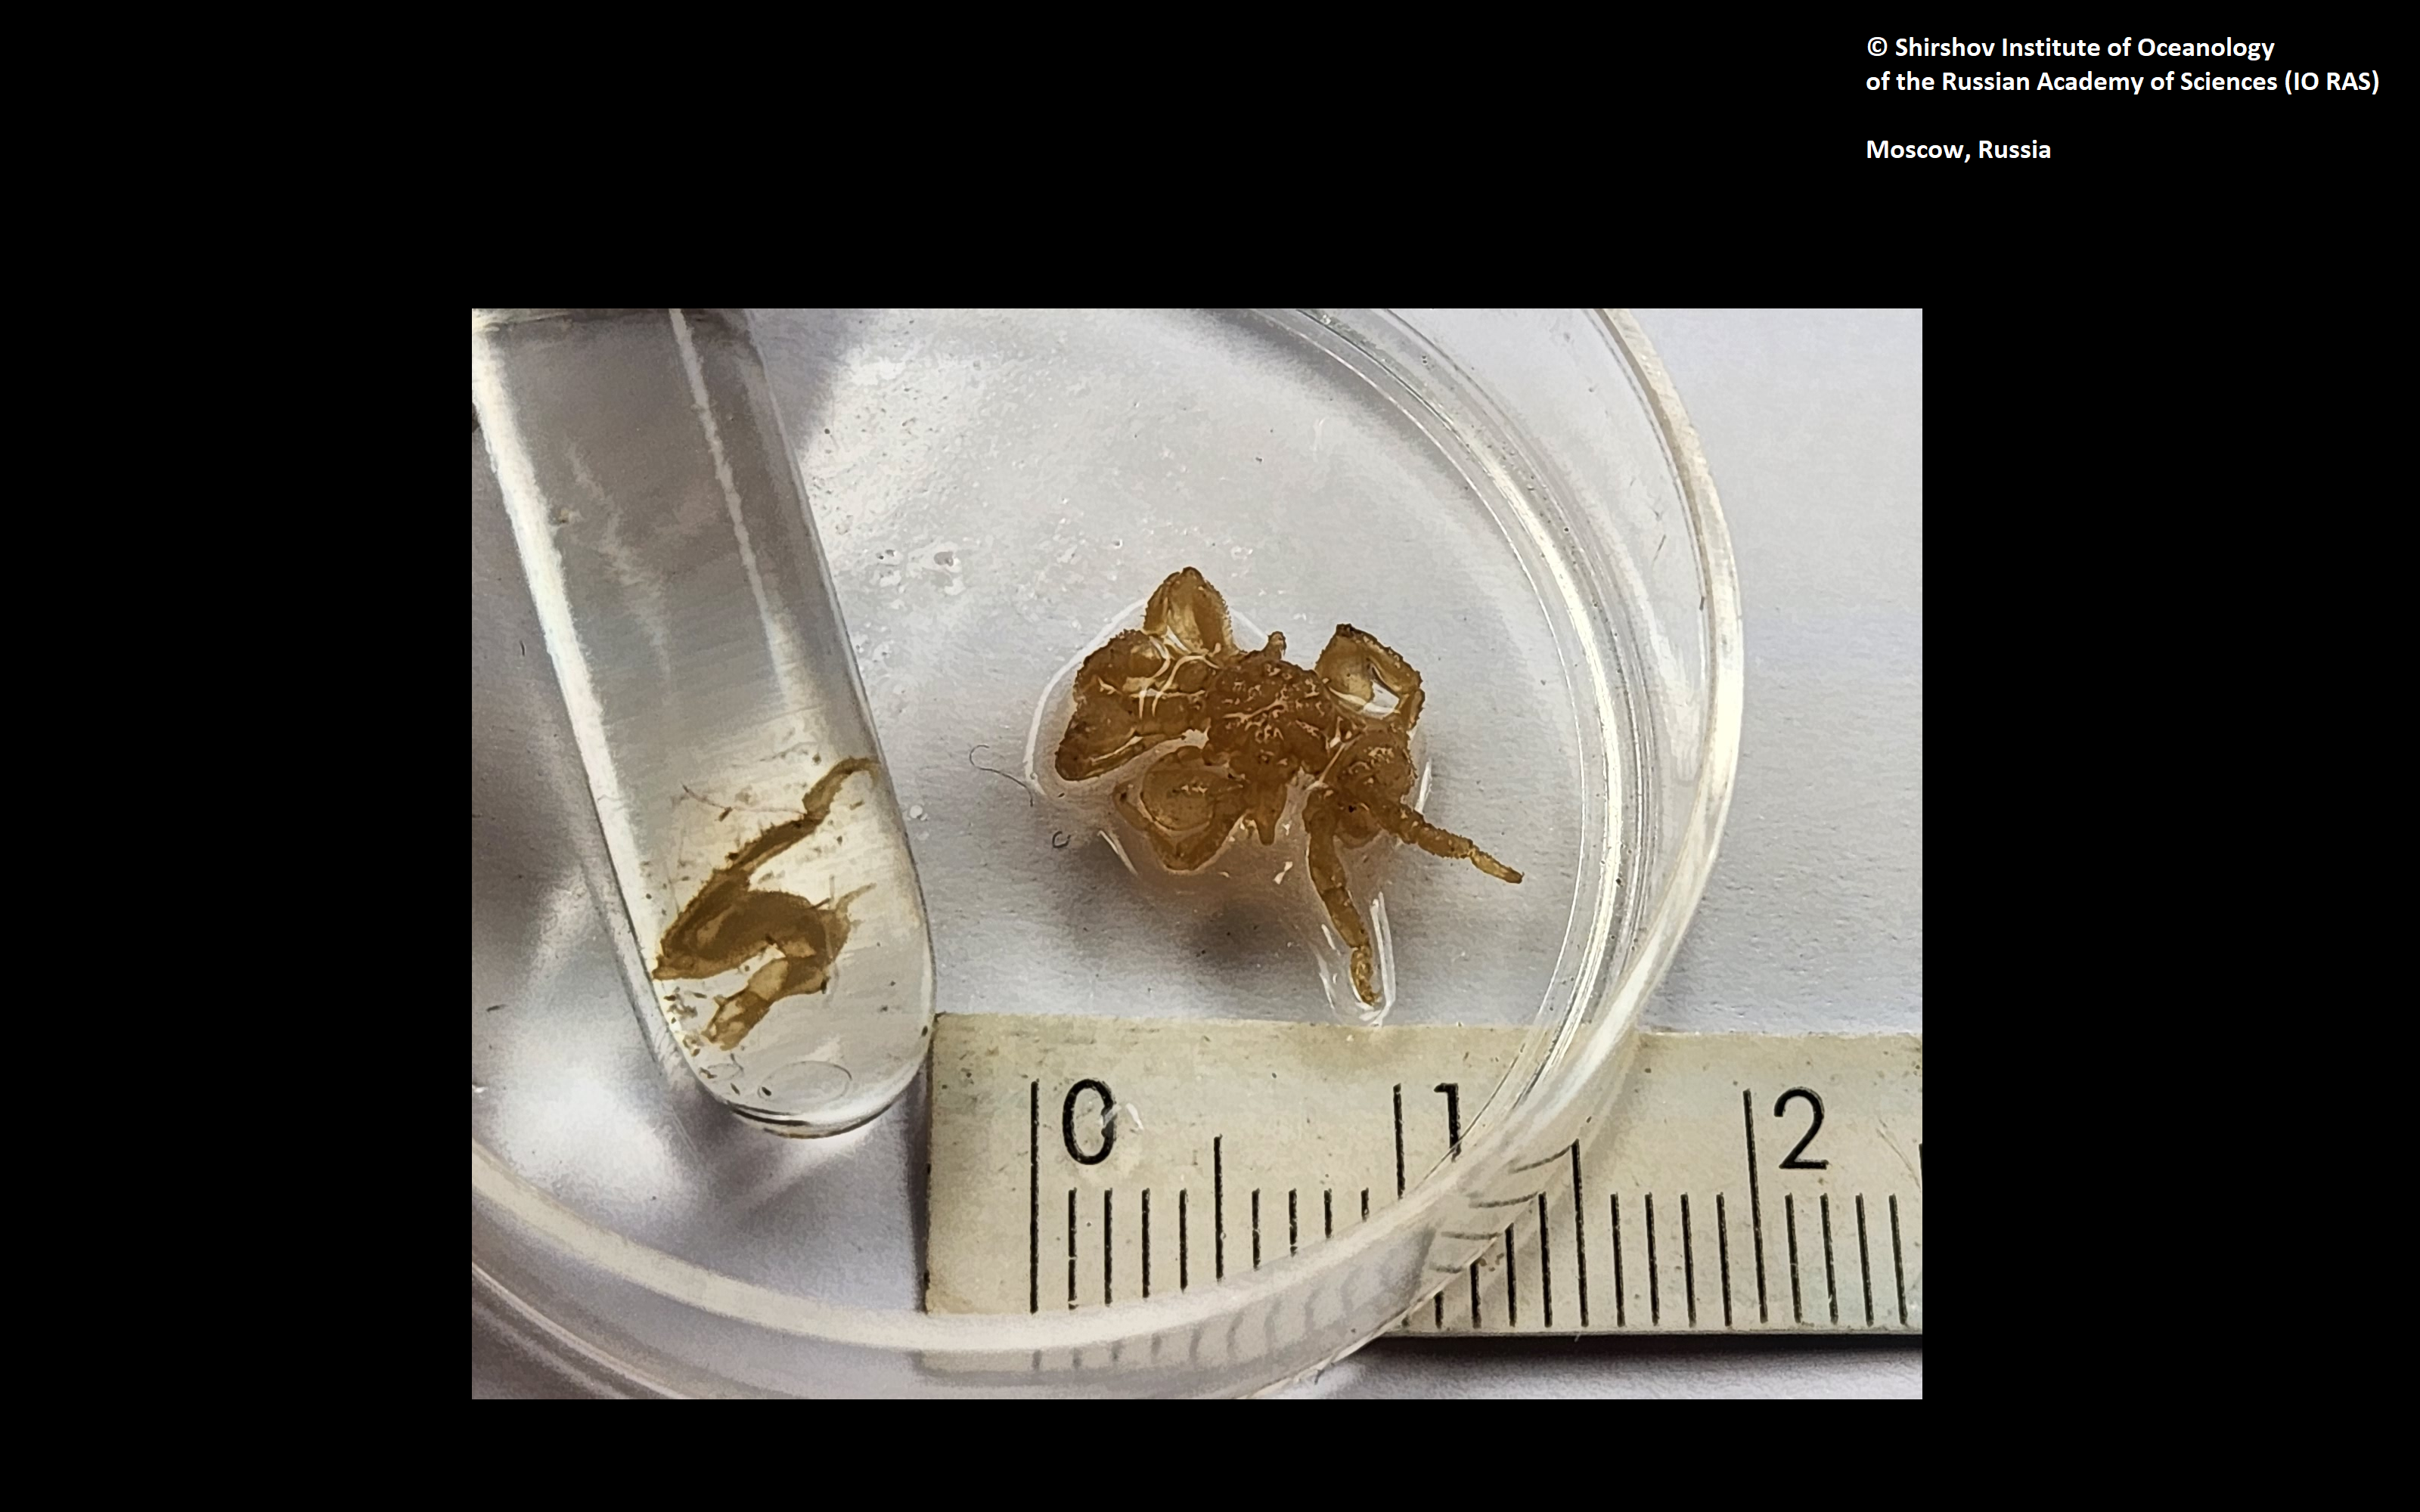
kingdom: Animalia
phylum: Arthropoda
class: Pycnogonida
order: Pantopoda
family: Ammotheidae
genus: Achelia
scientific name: Achelia rostrata
